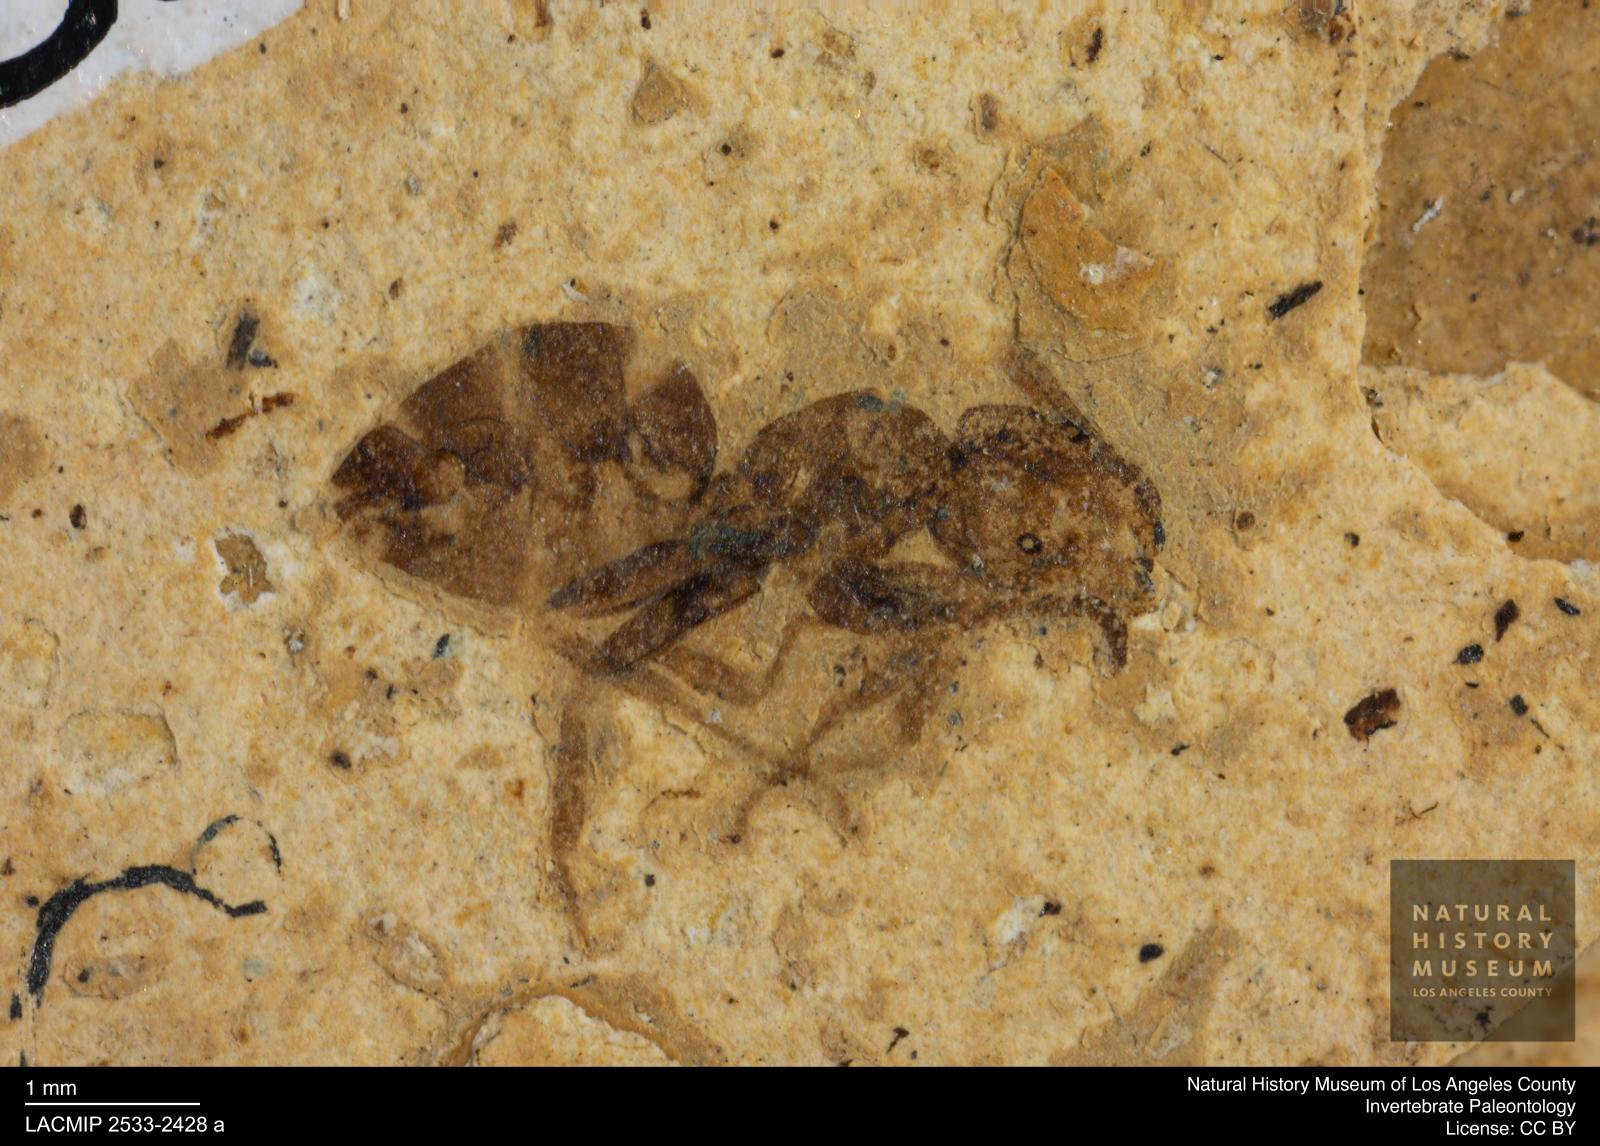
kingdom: Animalia
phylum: Arthropoda
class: Insecta
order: Hymenoptera
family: Formicidae
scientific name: Formicidae
